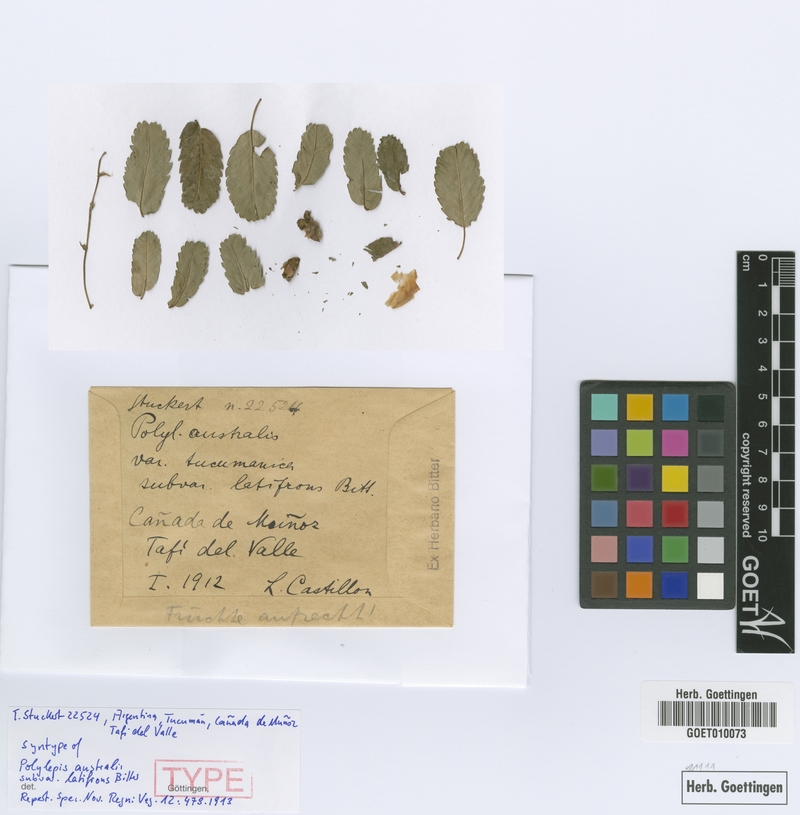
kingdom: Plantae
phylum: Tracheophyta
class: Magnoliopsida
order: Rosales
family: Rosaceae
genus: Polylepis
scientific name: Polylepis australis
